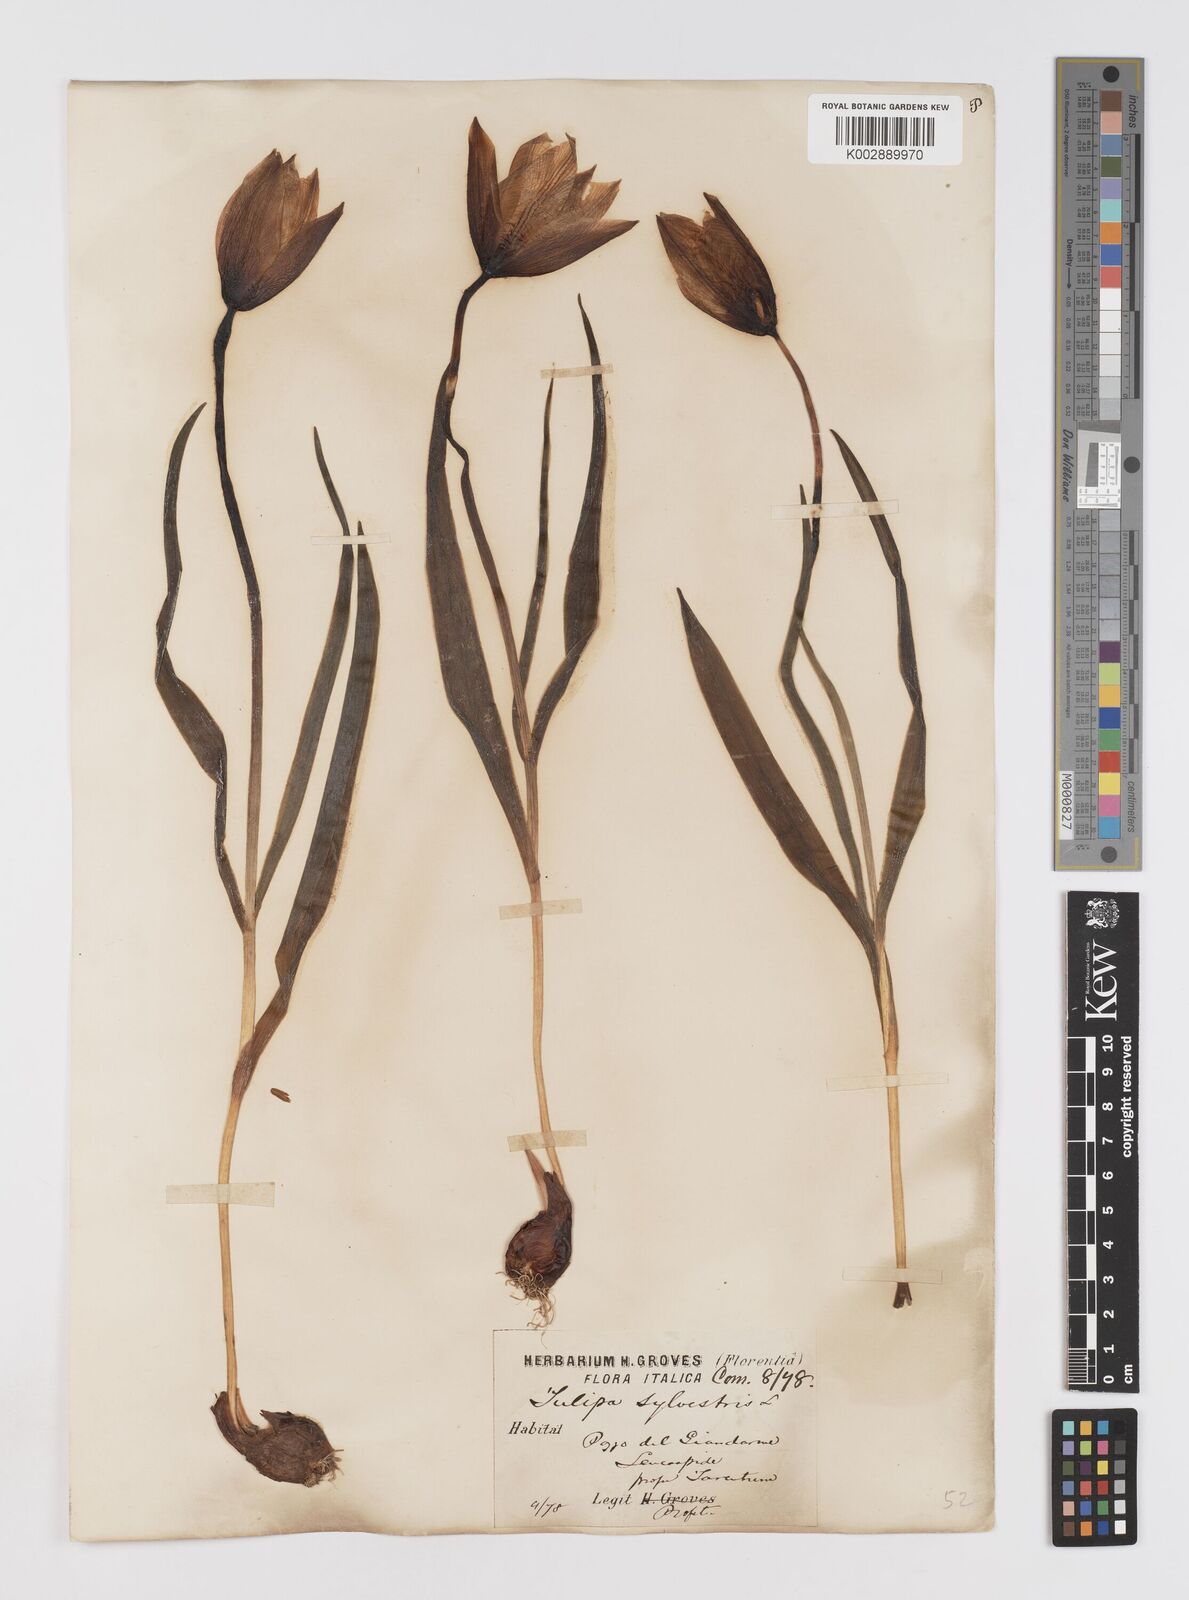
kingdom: Plantae
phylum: Tracheophyta
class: Liliopsida
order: Liliales
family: Liliaceae
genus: Tulipa
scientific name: Tulipa sylvestris
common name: Wild tulip
